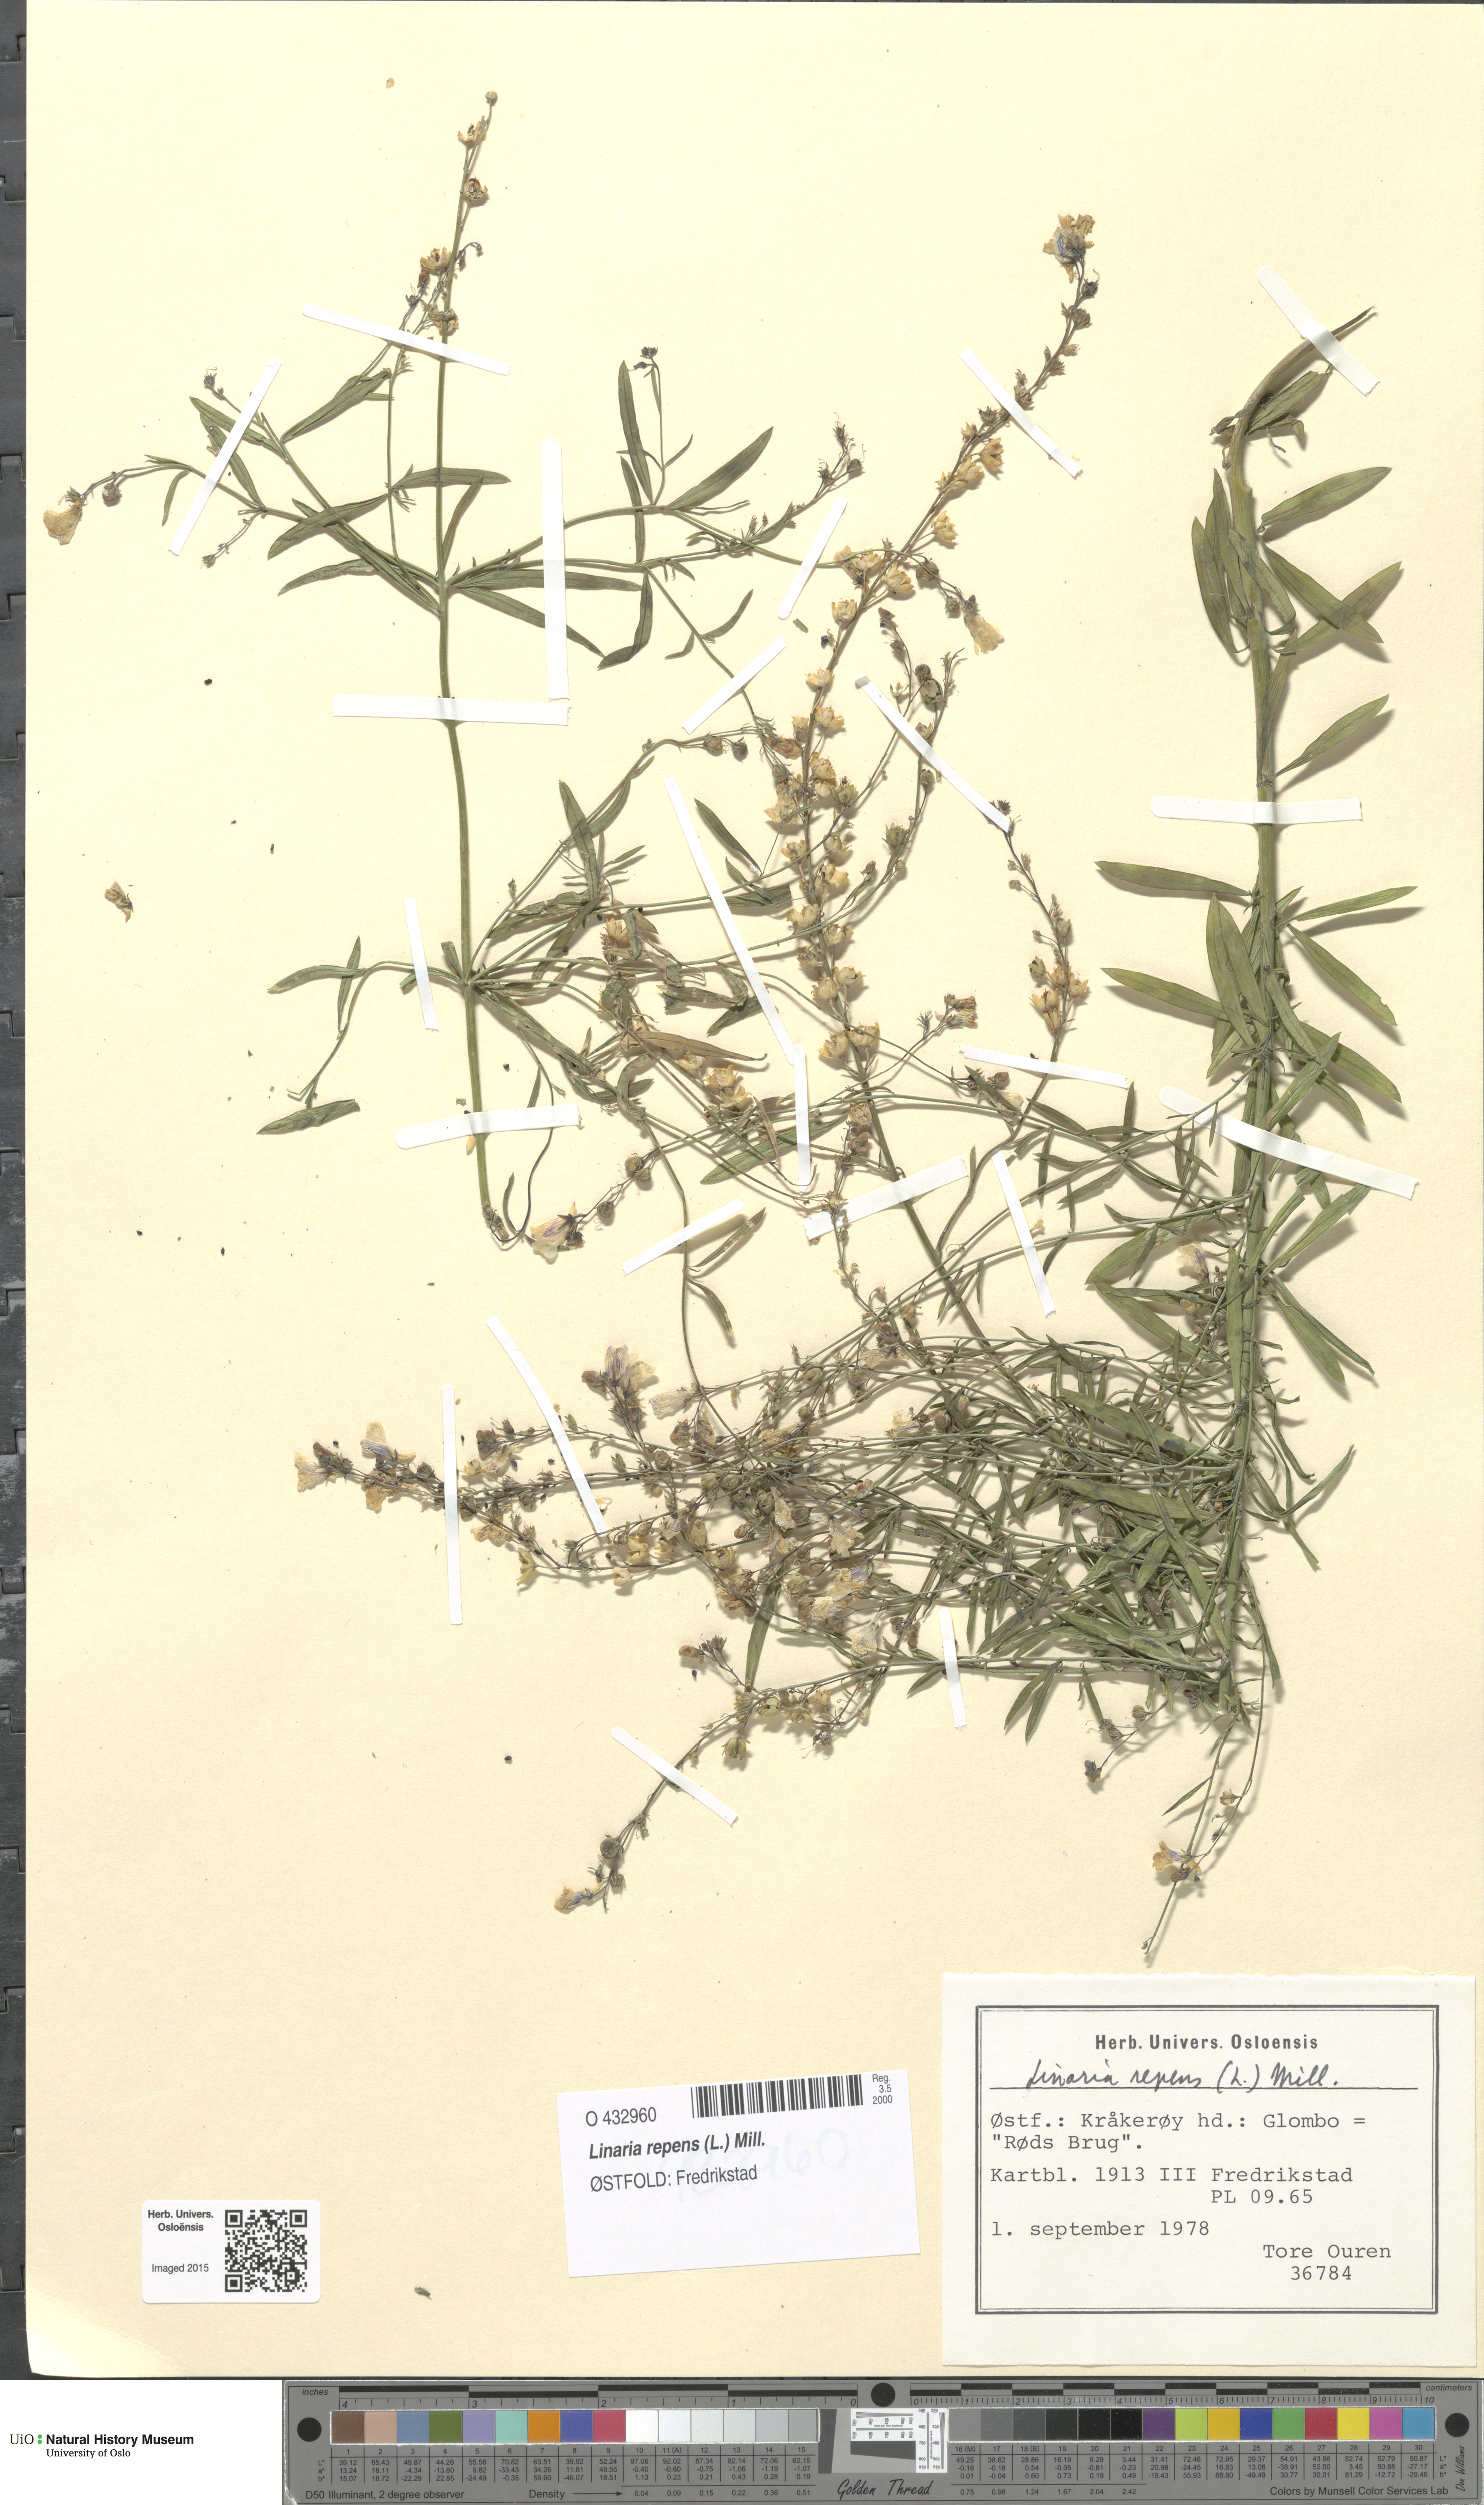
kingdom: Plantae
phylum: Tracheophyta
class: Magnoliopsida
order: Lamiales
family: Plantaginaceae
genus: Linaria
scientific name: Linaria repens
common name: Pale toadflax
